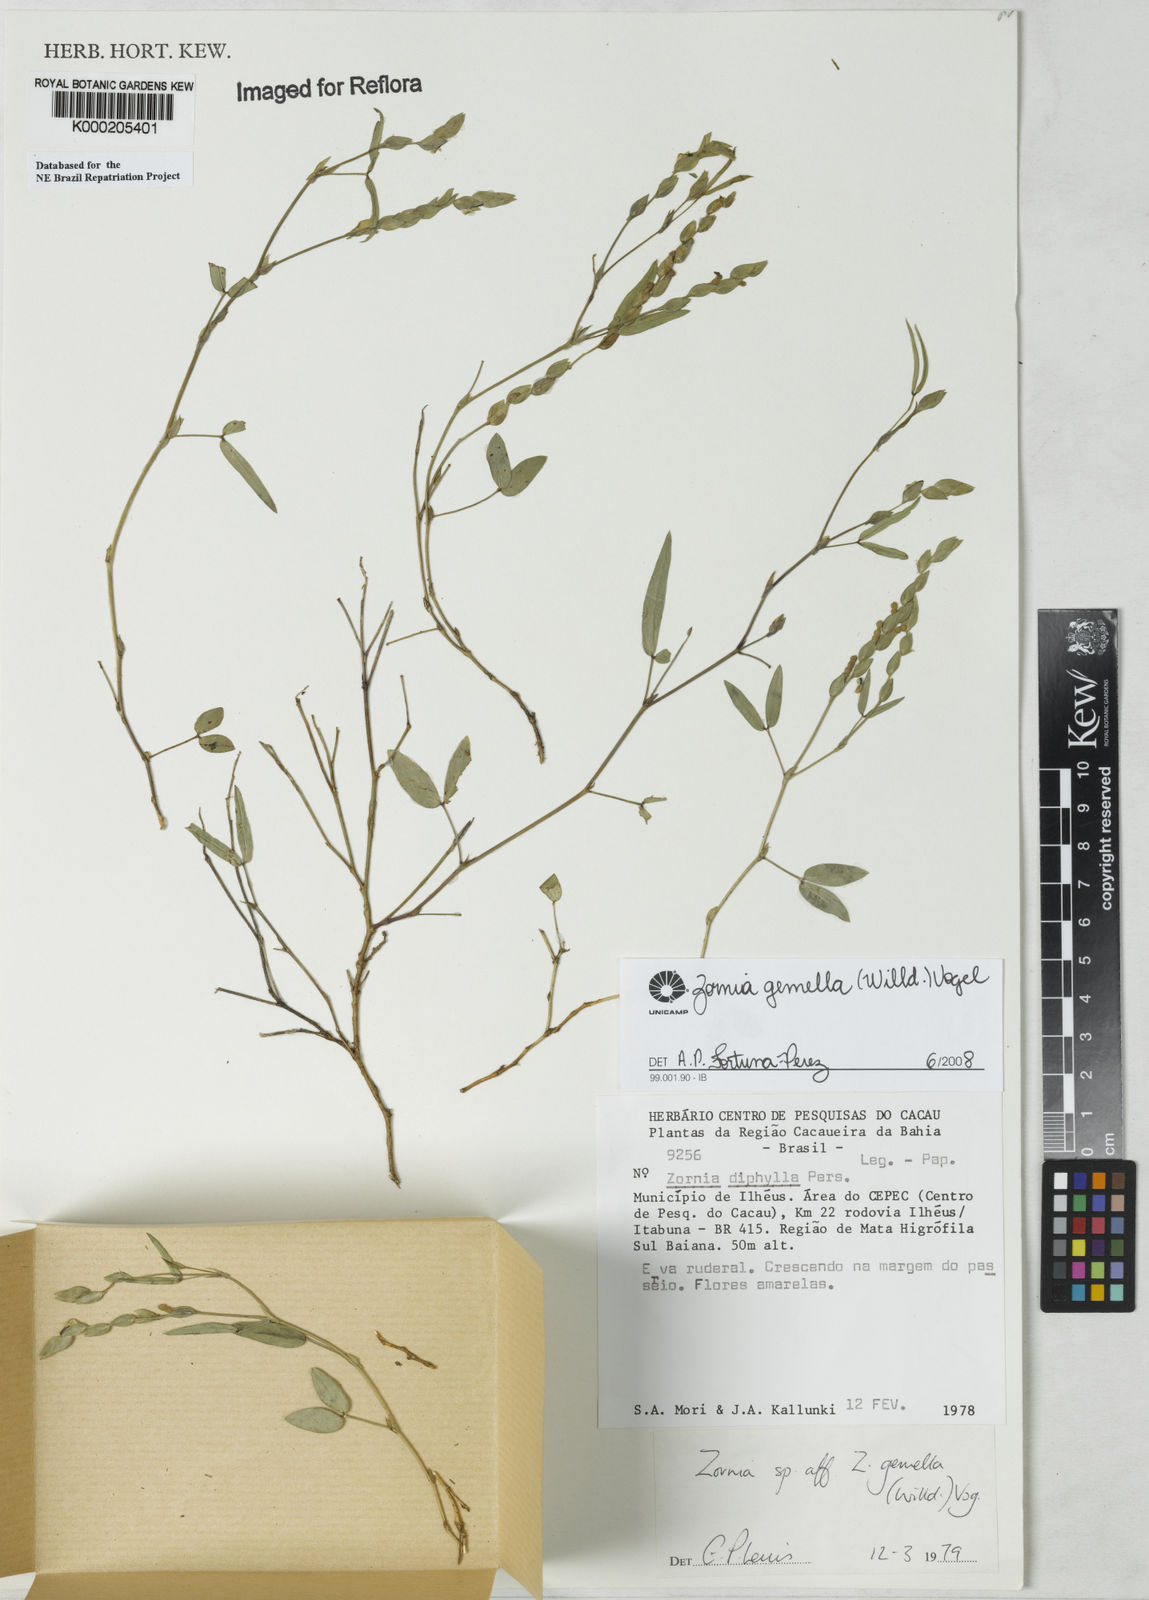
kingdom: Plantae
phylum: Tracheophyta
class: Magnoliopsida
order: Fabales
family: Fabaceae
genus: Zornia
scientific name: Zornia latifolia
